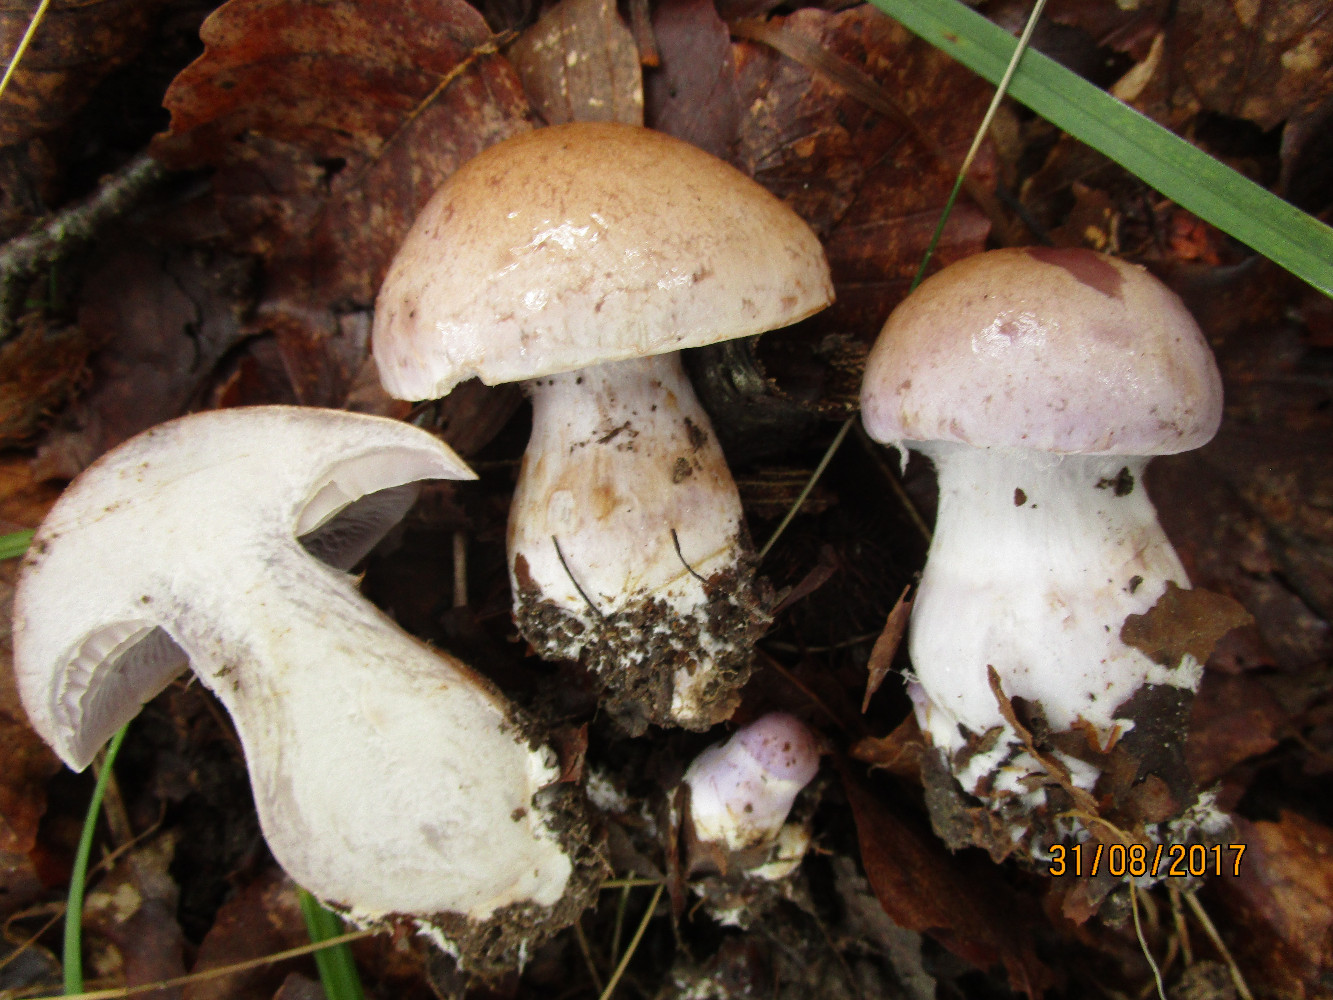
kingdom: Fungi
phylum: Basidiomycota
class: Agaricomycetes
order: Agaricales
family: Cortinariaceae
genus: Cortinarius
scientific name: Cortinarius anserinus
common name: bøge-slørhat
